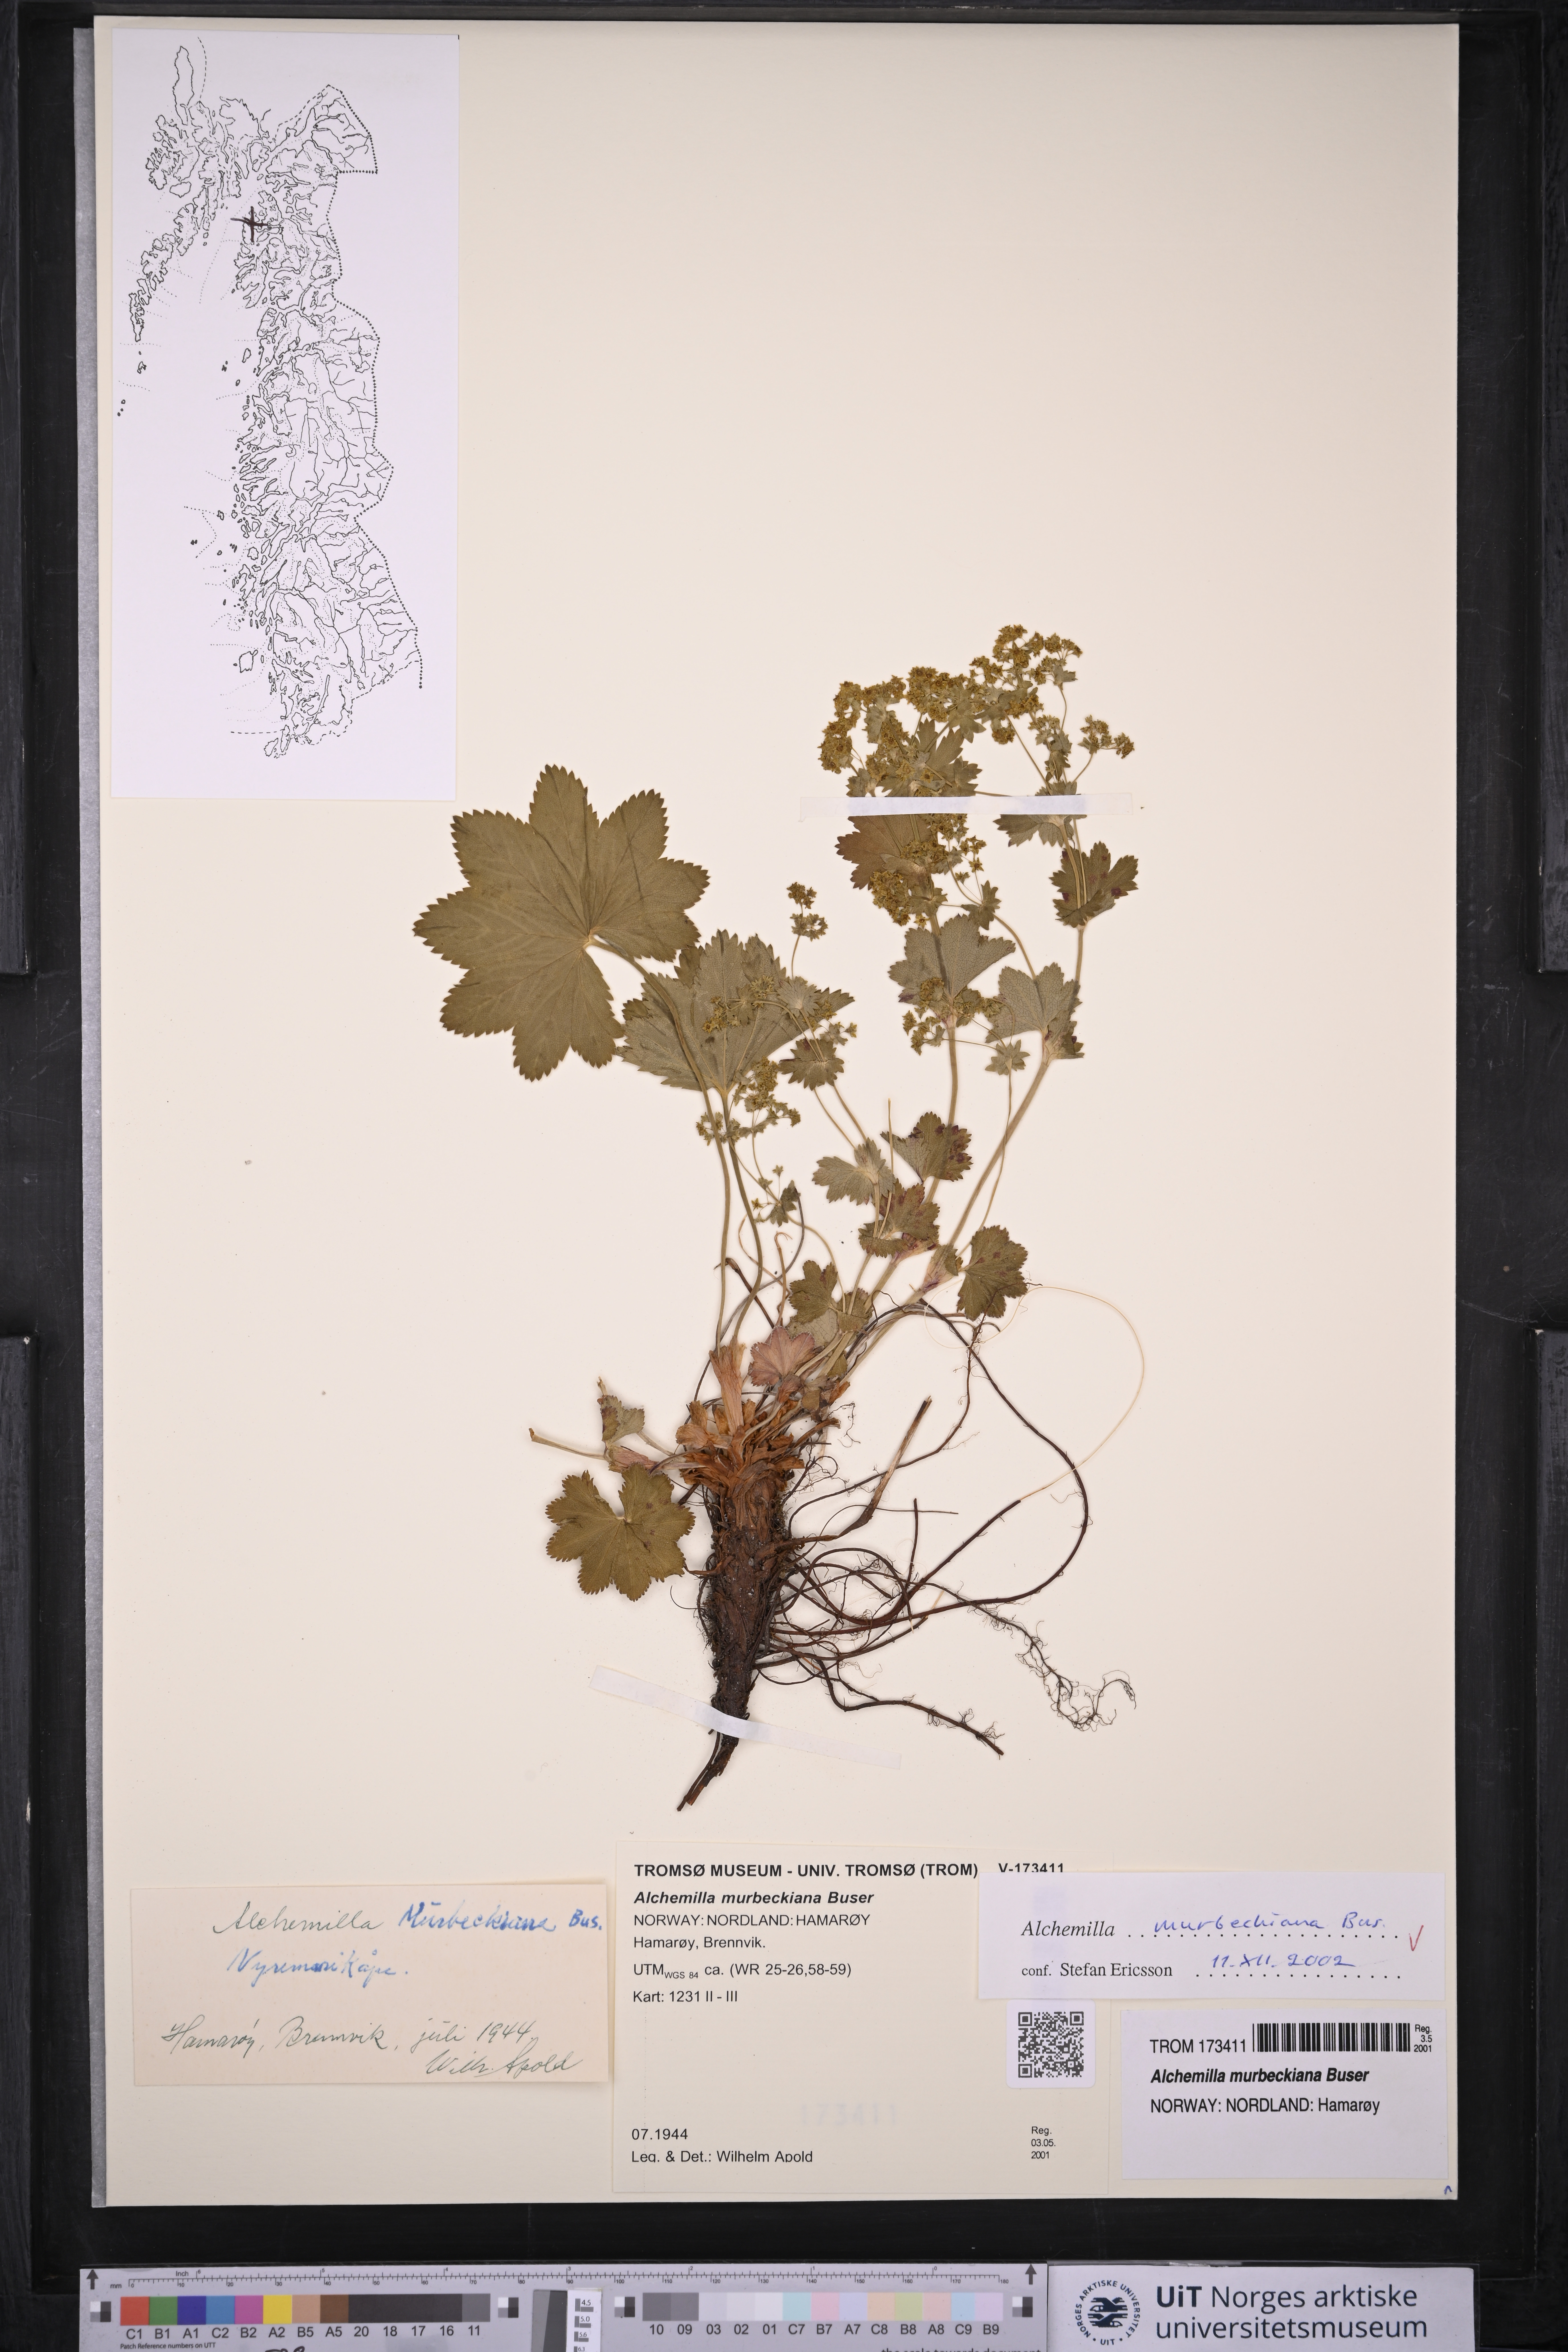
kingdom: Plantae
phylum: Tracheophyta
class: Magnoliopsida
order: Rosales
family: Rosaceae
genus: Alchemilla
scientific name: Alchemilla murbeckiana
